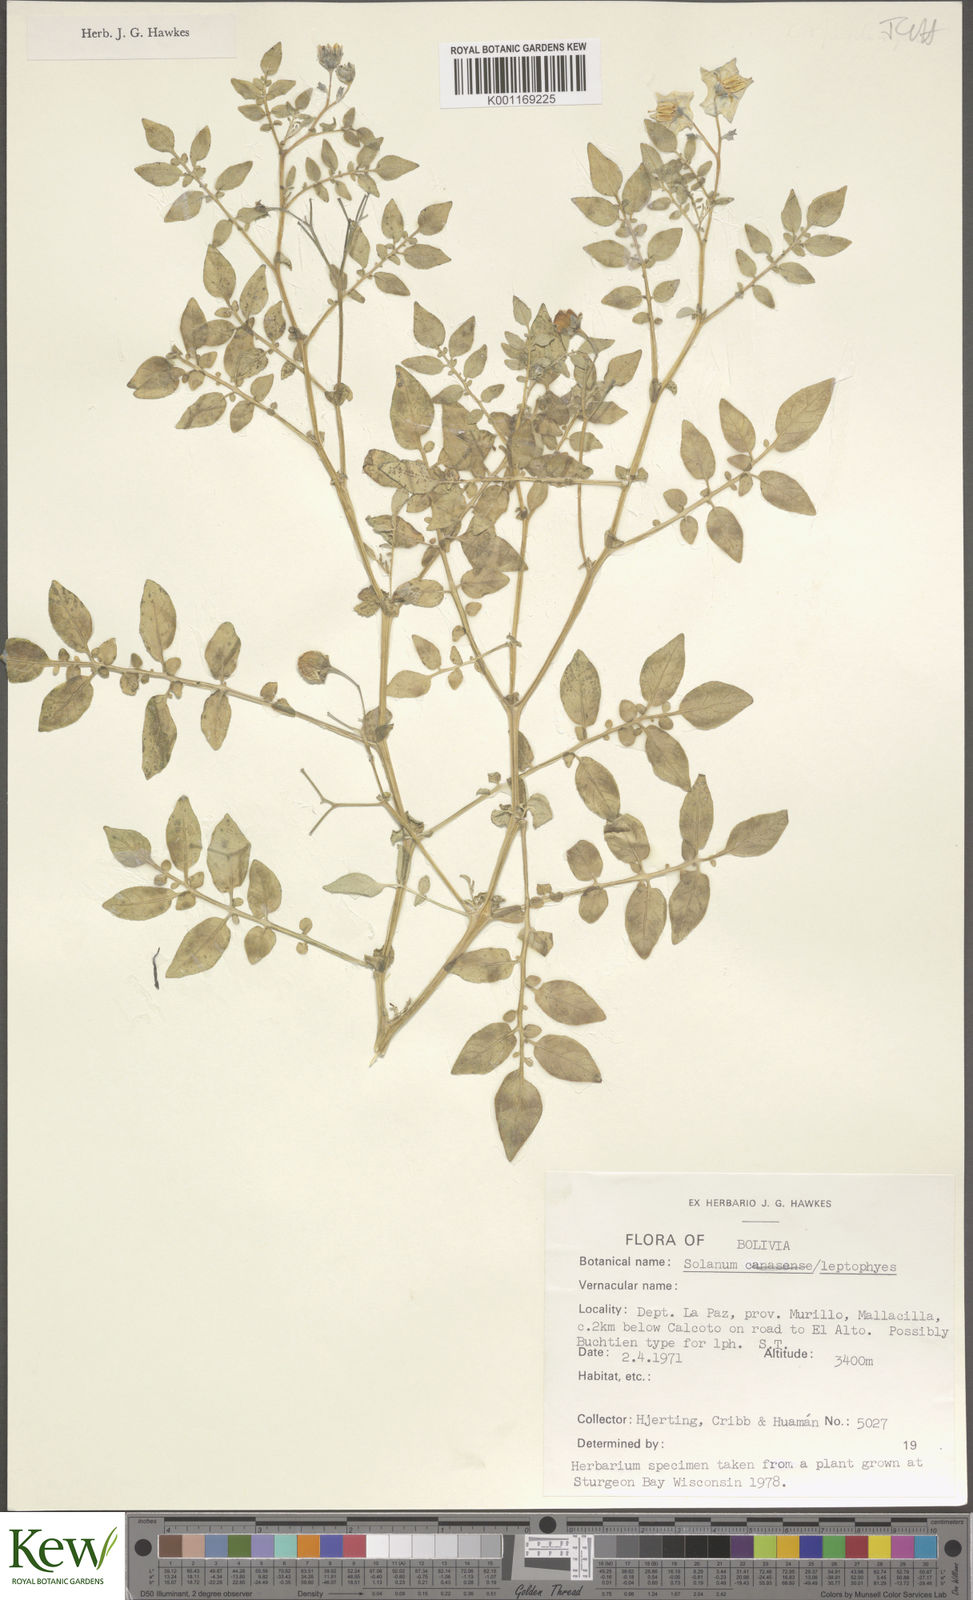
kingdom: Plantae
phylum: Tracheophyta
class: Magnoliopsida
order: Solanales
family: Solanaceae
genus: Solanum
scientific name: Solanum brevicaule
